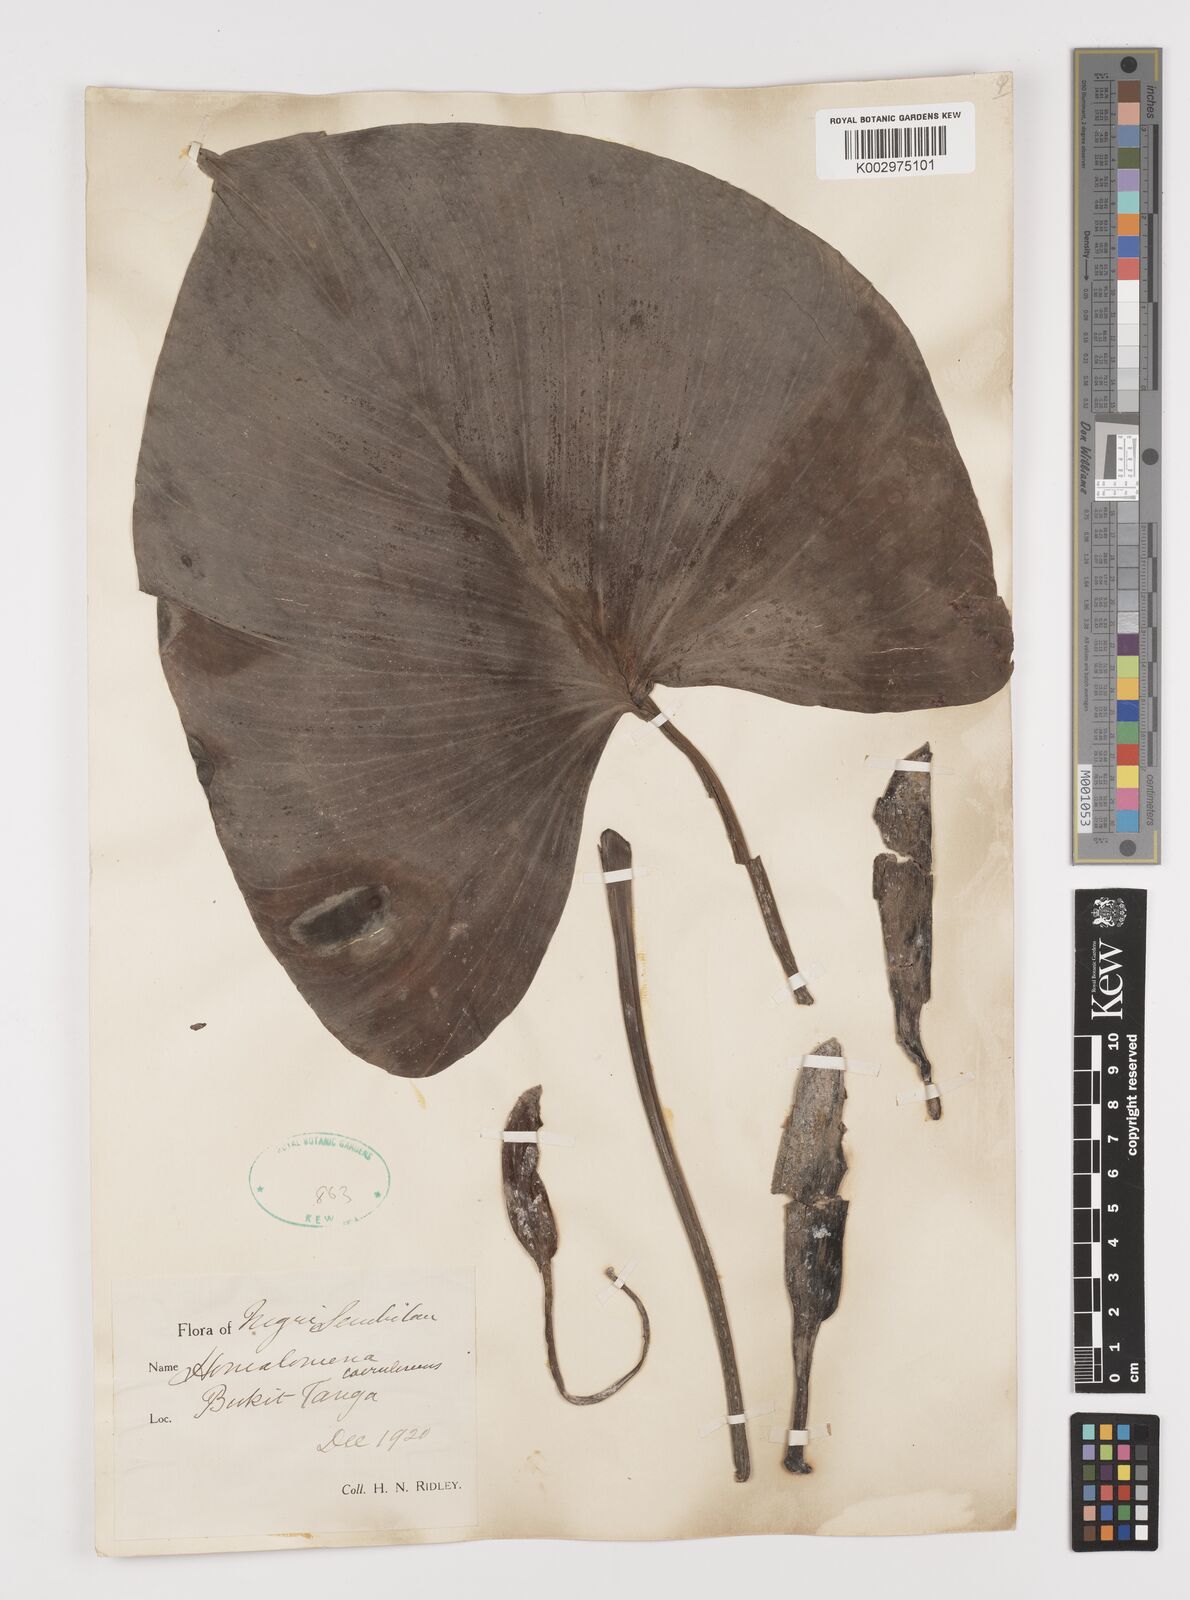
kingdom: Plantae
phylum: Tracheophyta
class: Liliopsida
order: Alismatales
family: Araceae
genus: Homalomena
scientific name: Homalomena pendula
